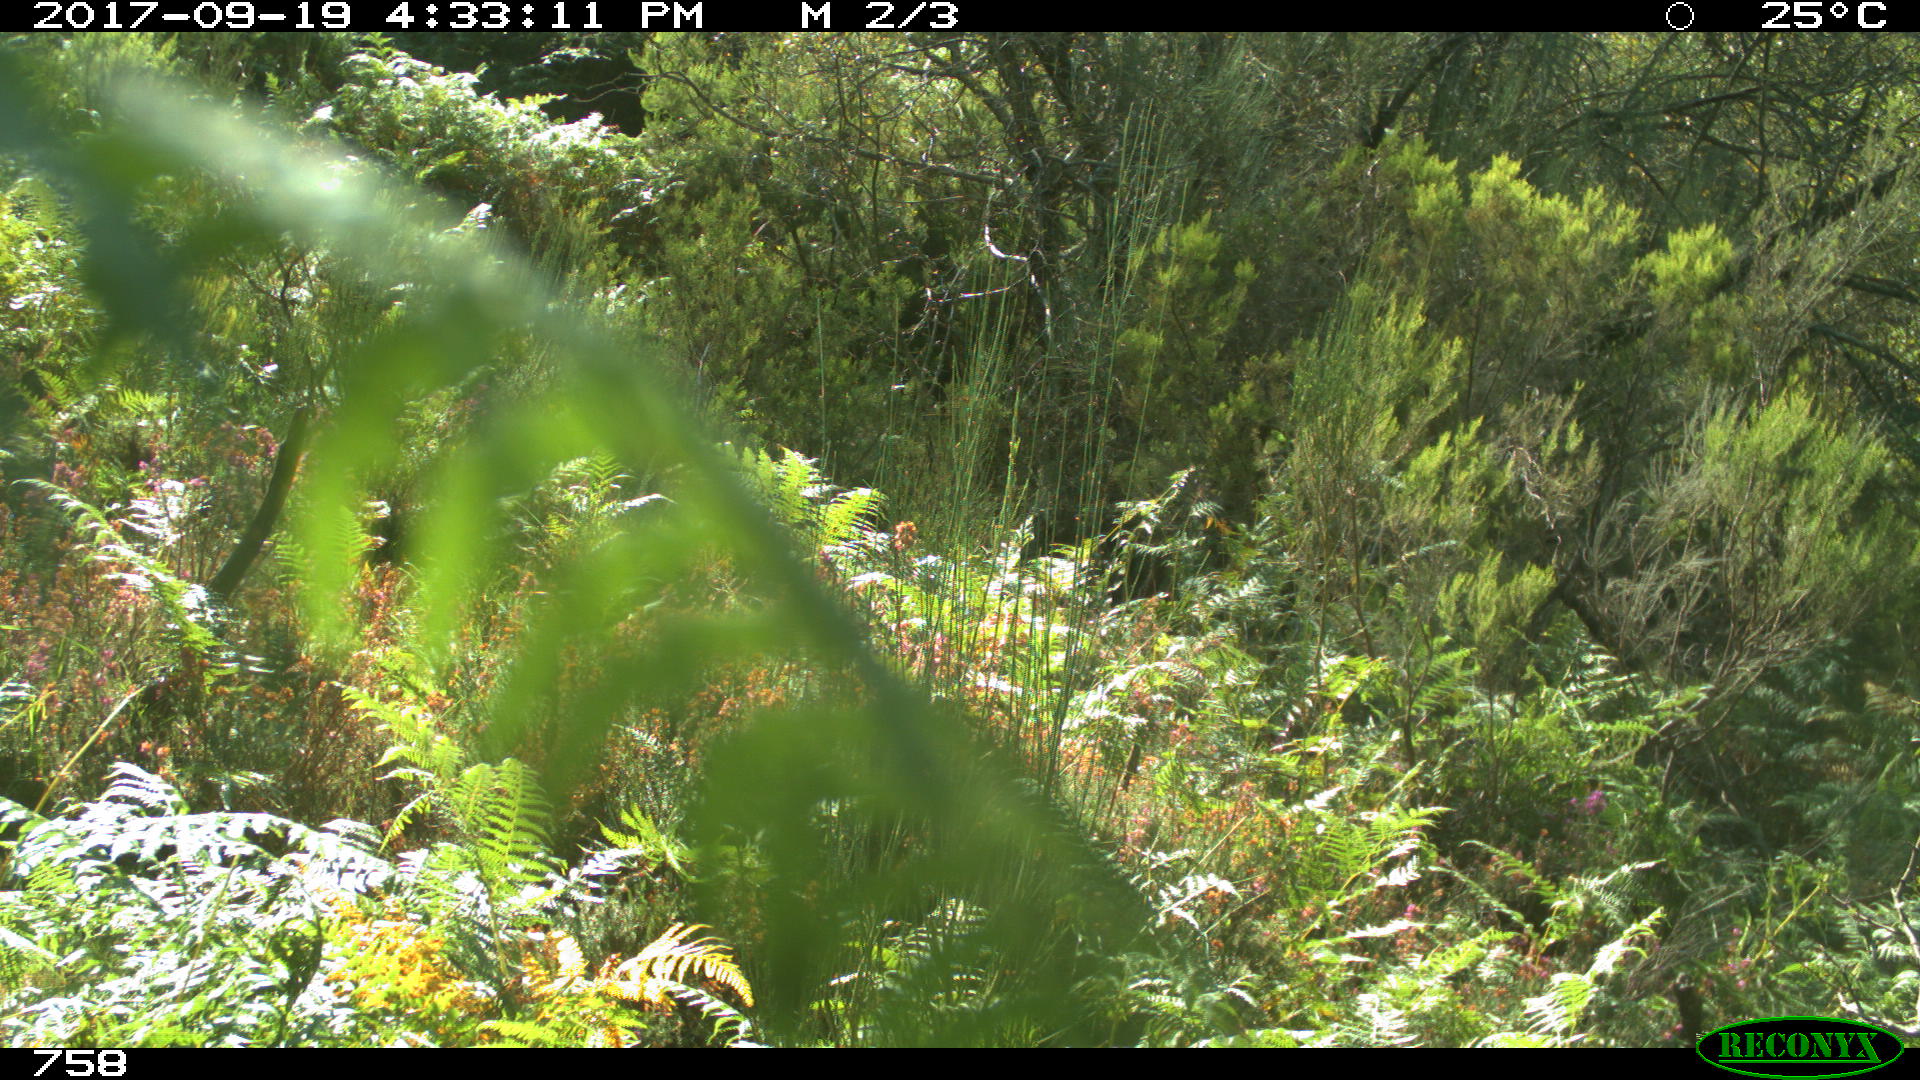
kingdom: Animalia
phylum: Chordata
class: Mammalia
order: Perissodactyla
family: Equidae
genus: Equus
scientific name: Equus caballus
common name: Horse
